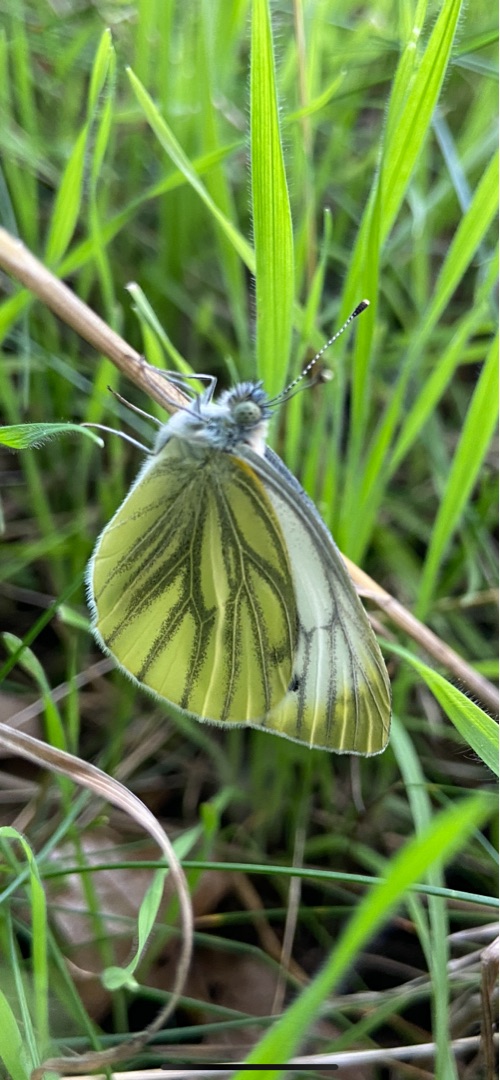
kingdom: Animalia
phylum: Arthropoda
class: Insecta
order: Lepidoptera
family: Pieridae
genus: Pieris
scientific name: Pieris napi
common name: Grønåret kålsommerfugl
